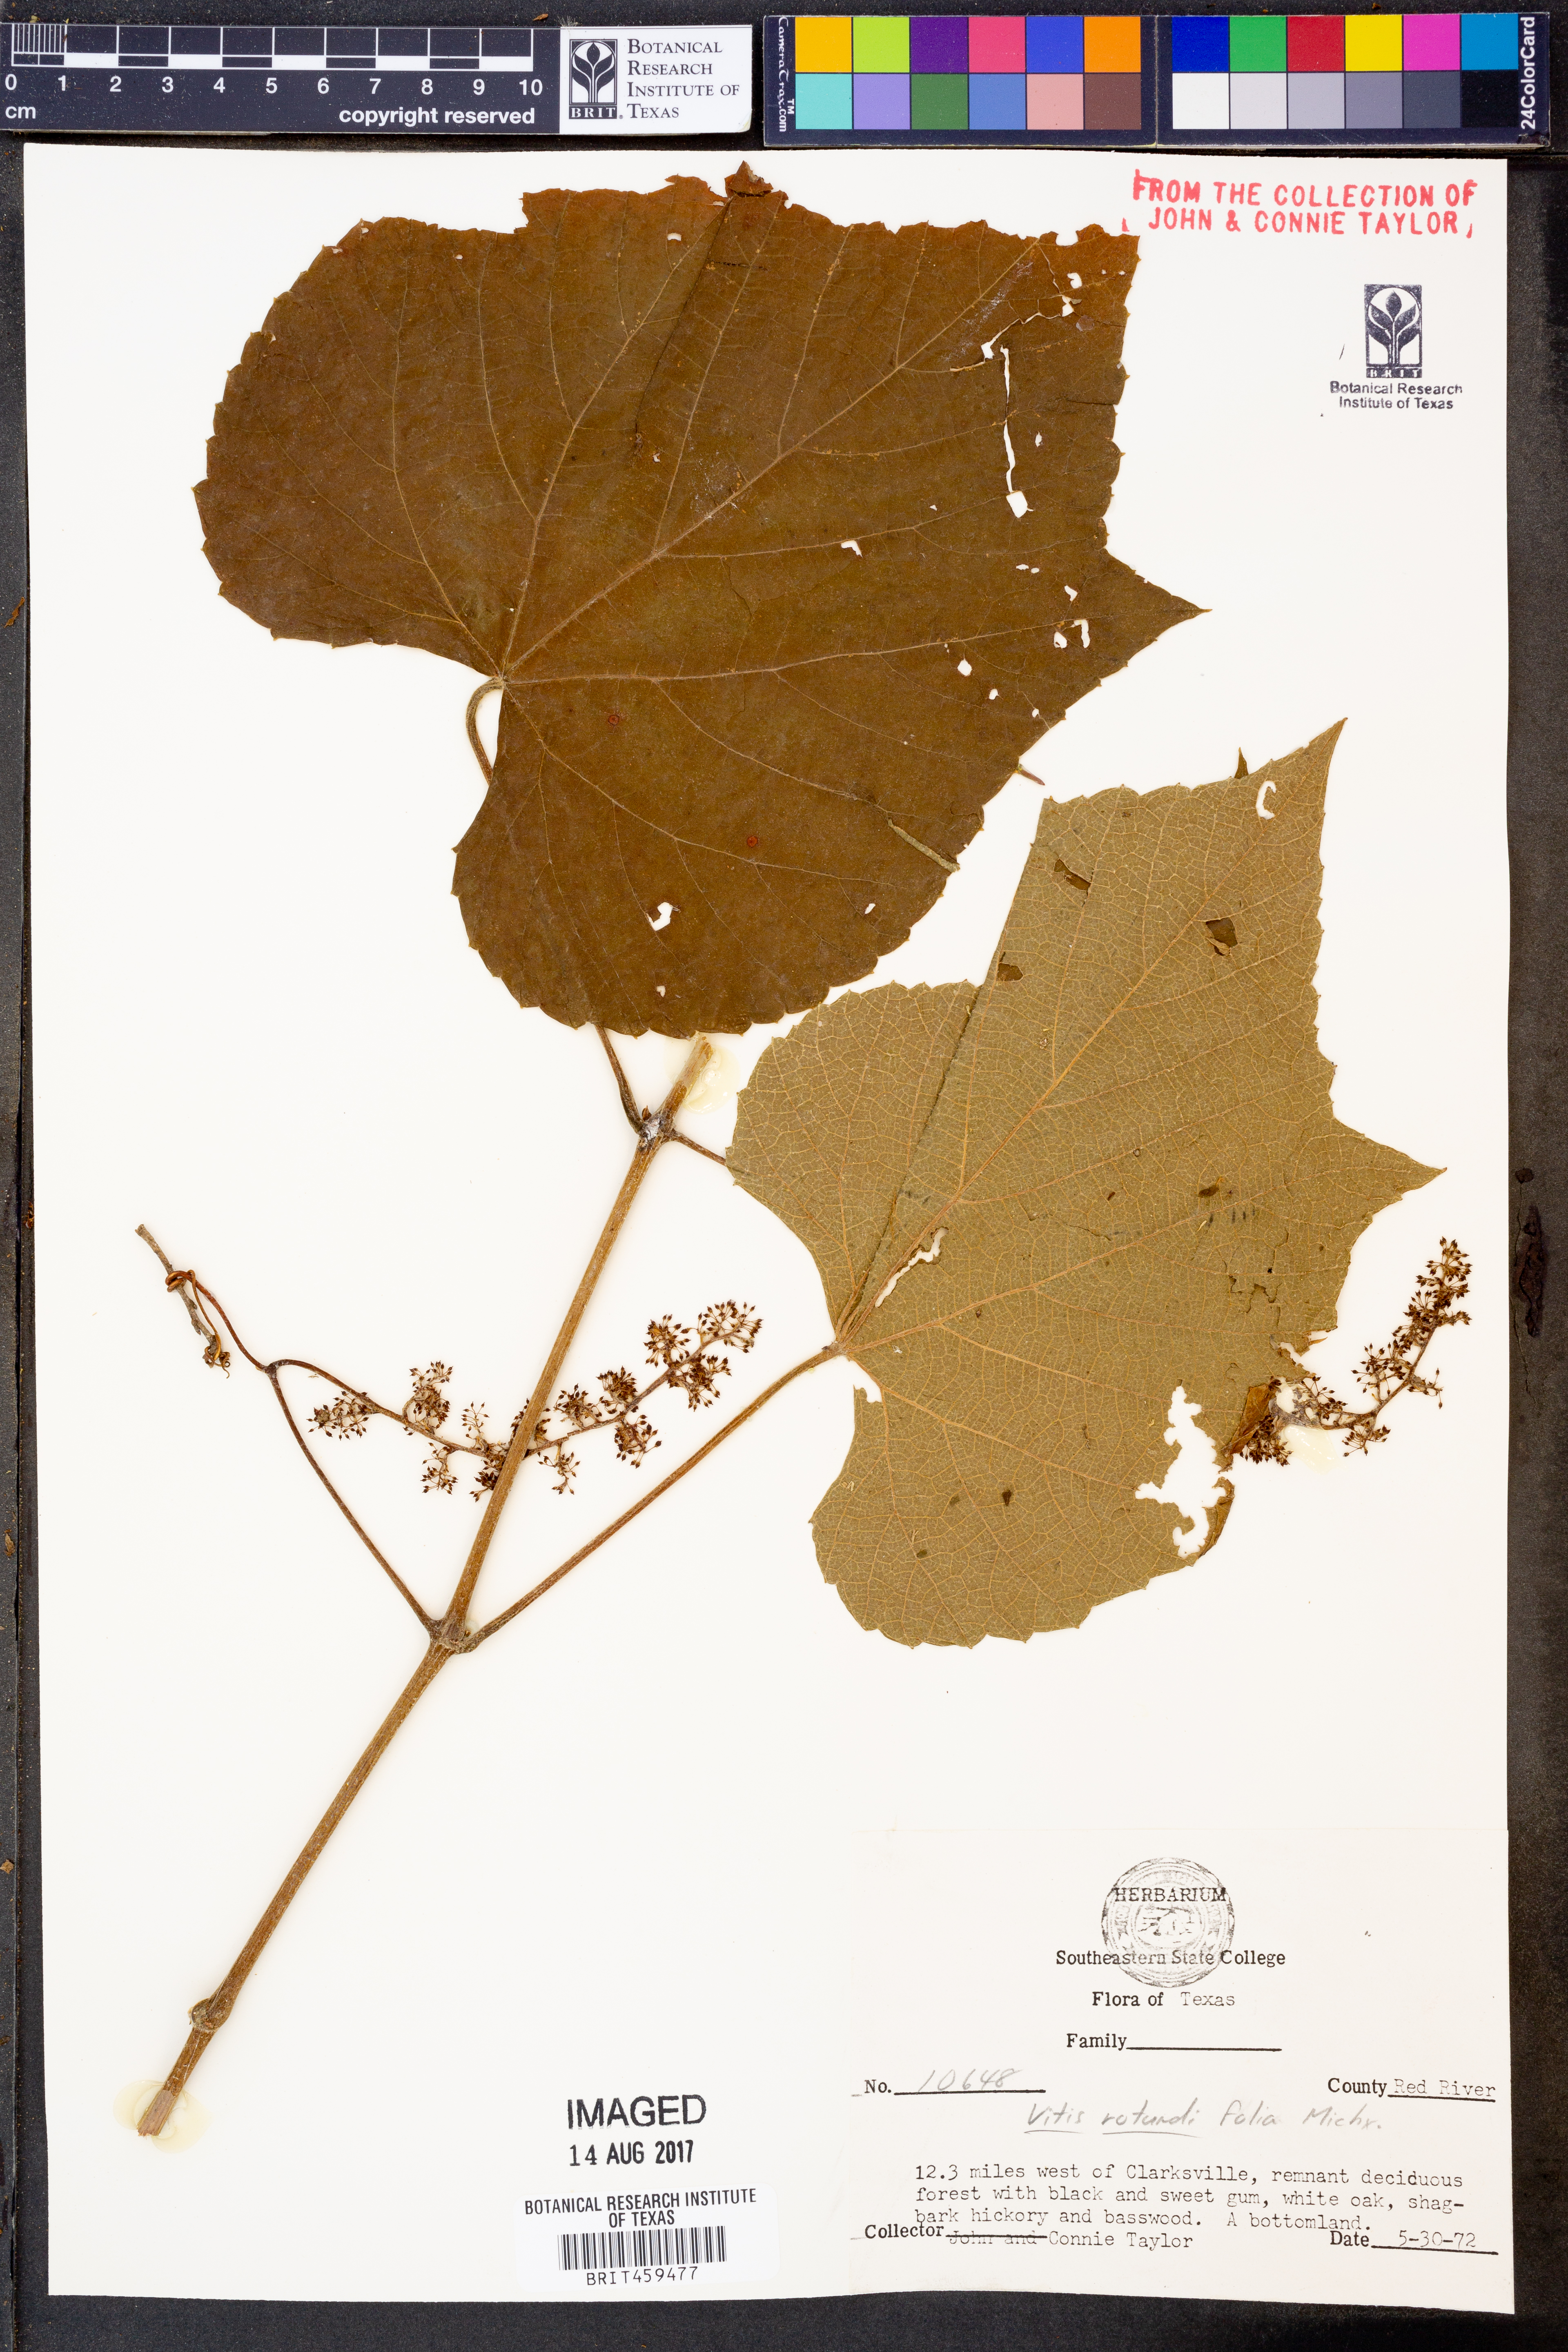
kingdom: Plantae
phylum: Tracheophyta
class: Magnoliopsida
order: Vitales
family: Vitaceae
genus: Vitis
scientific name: Vitis rotundifolia
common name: Muscadine grape
